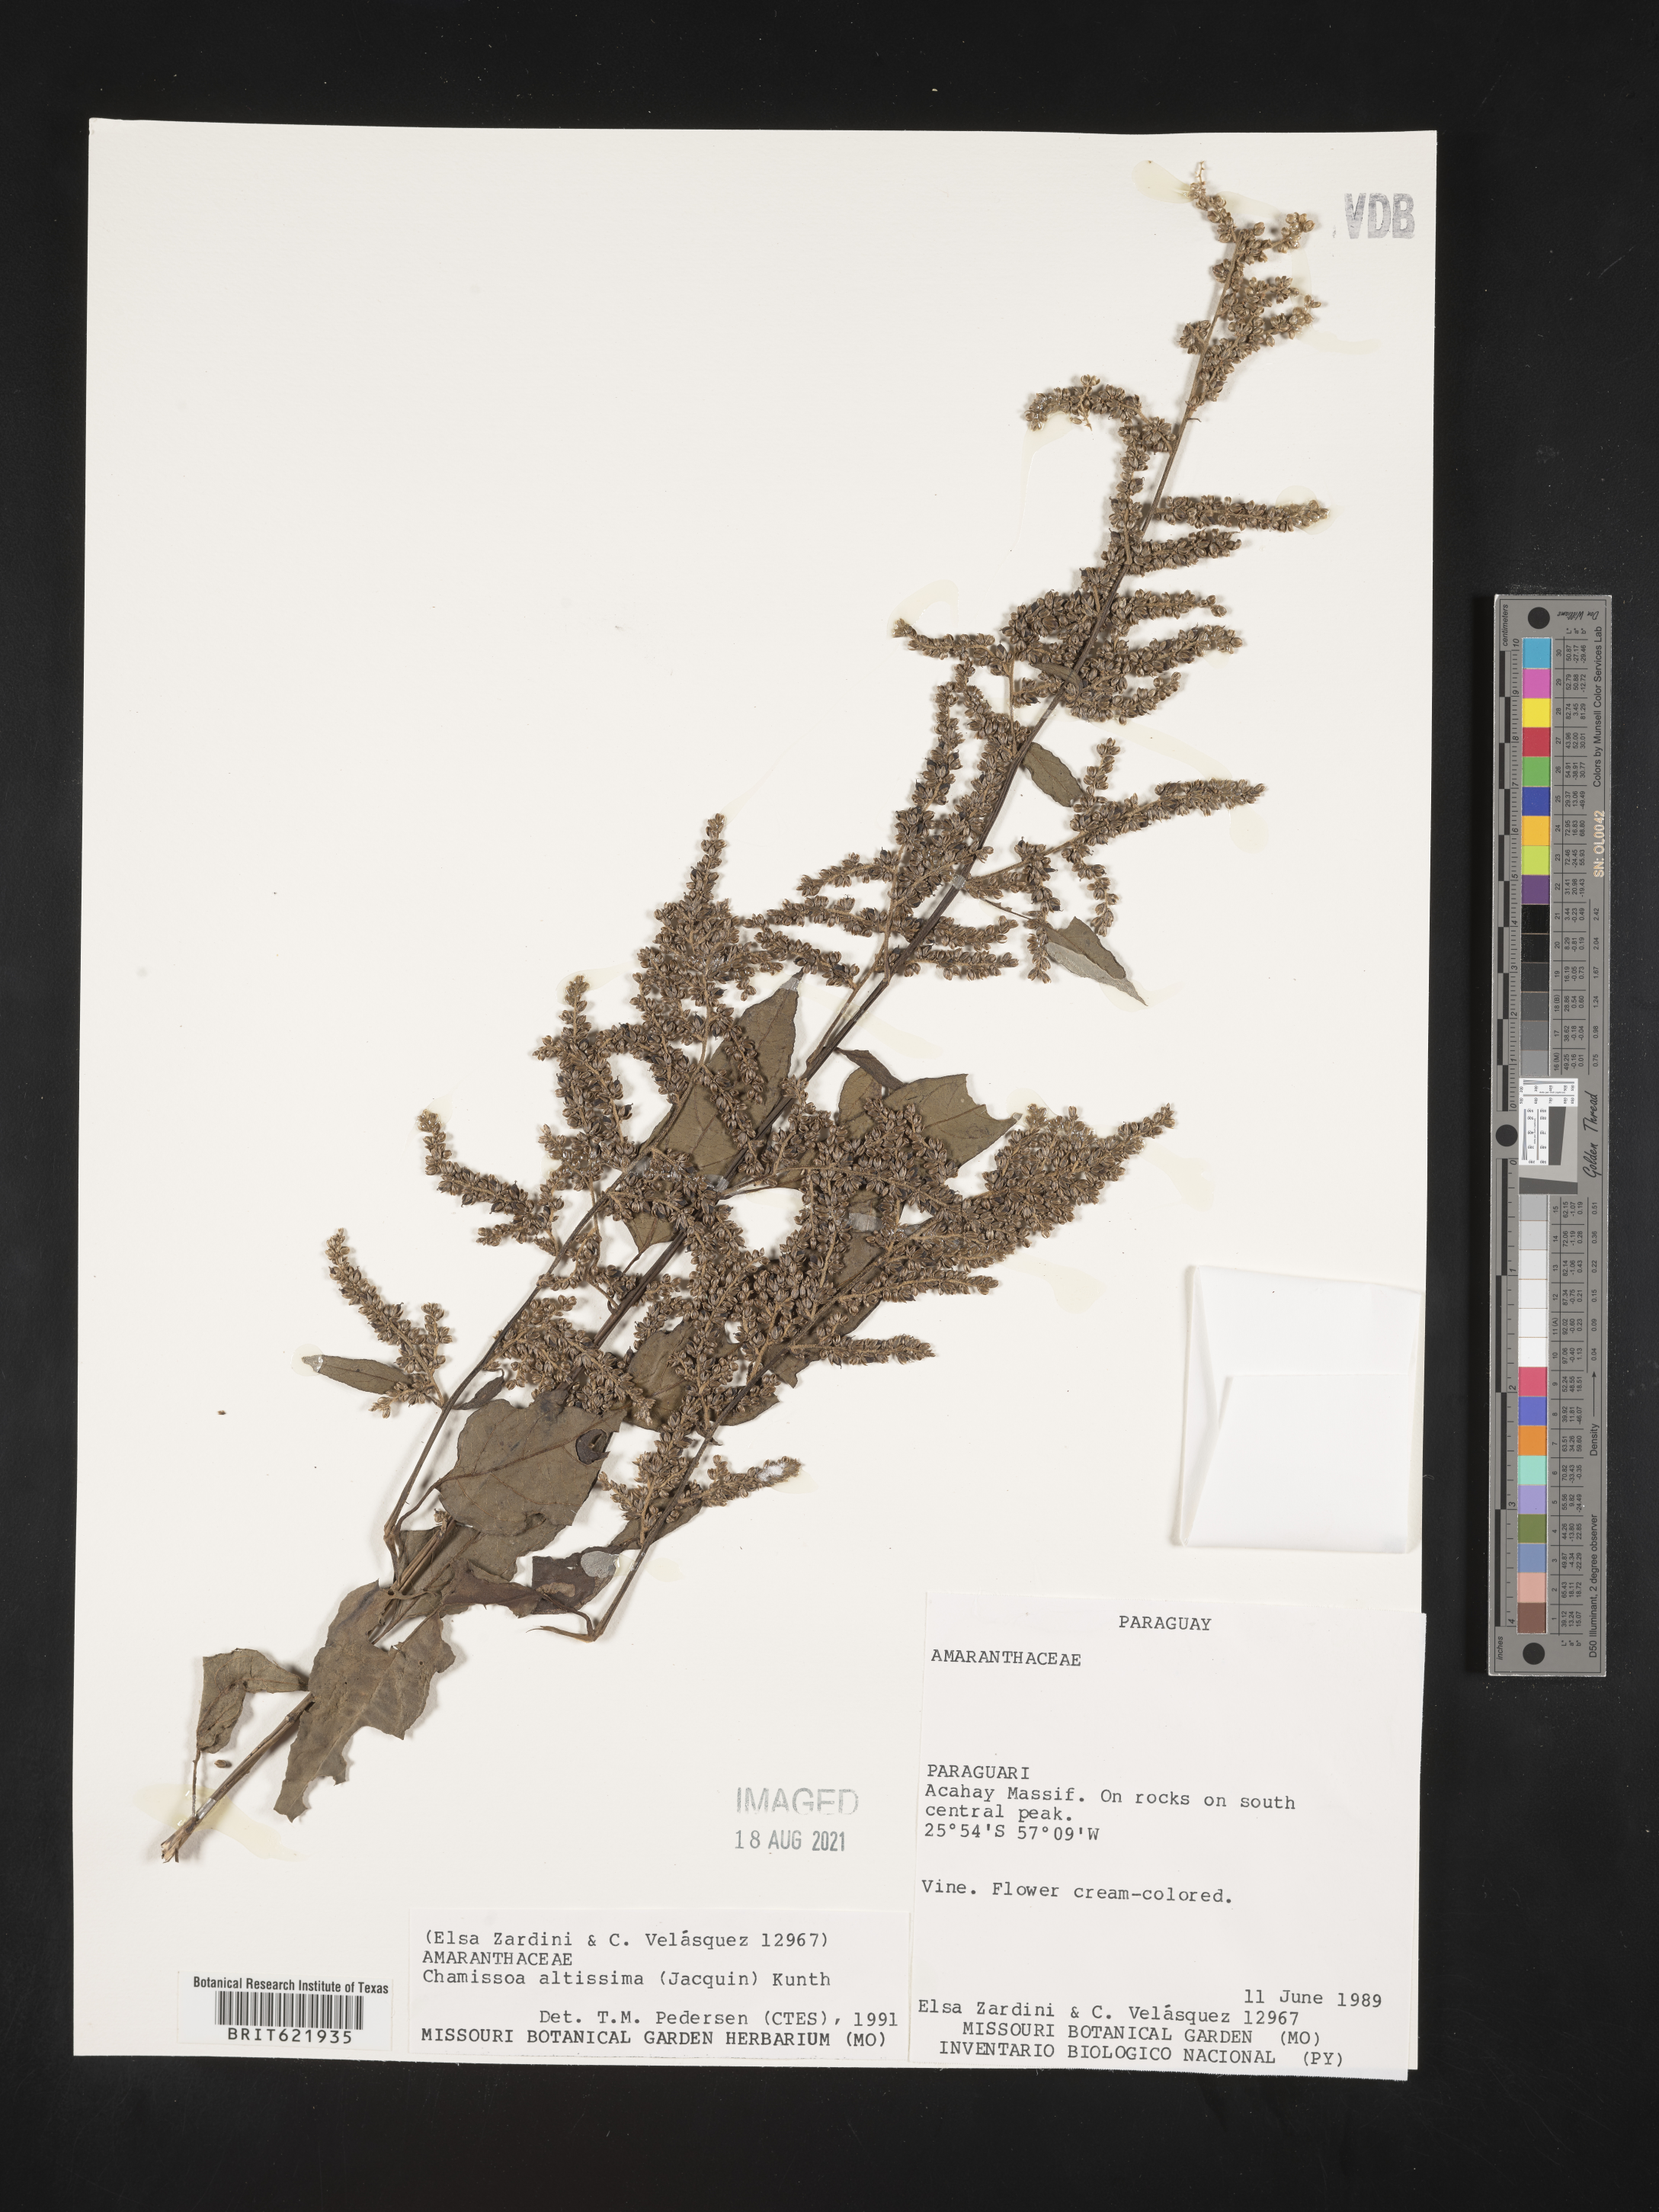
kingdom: Plantae
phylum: Tracheophyta
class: Magnoliopsida
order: Caryophyllales
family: Amaranthaceae
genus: Chamissoa
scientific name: Chamissoa altissima
